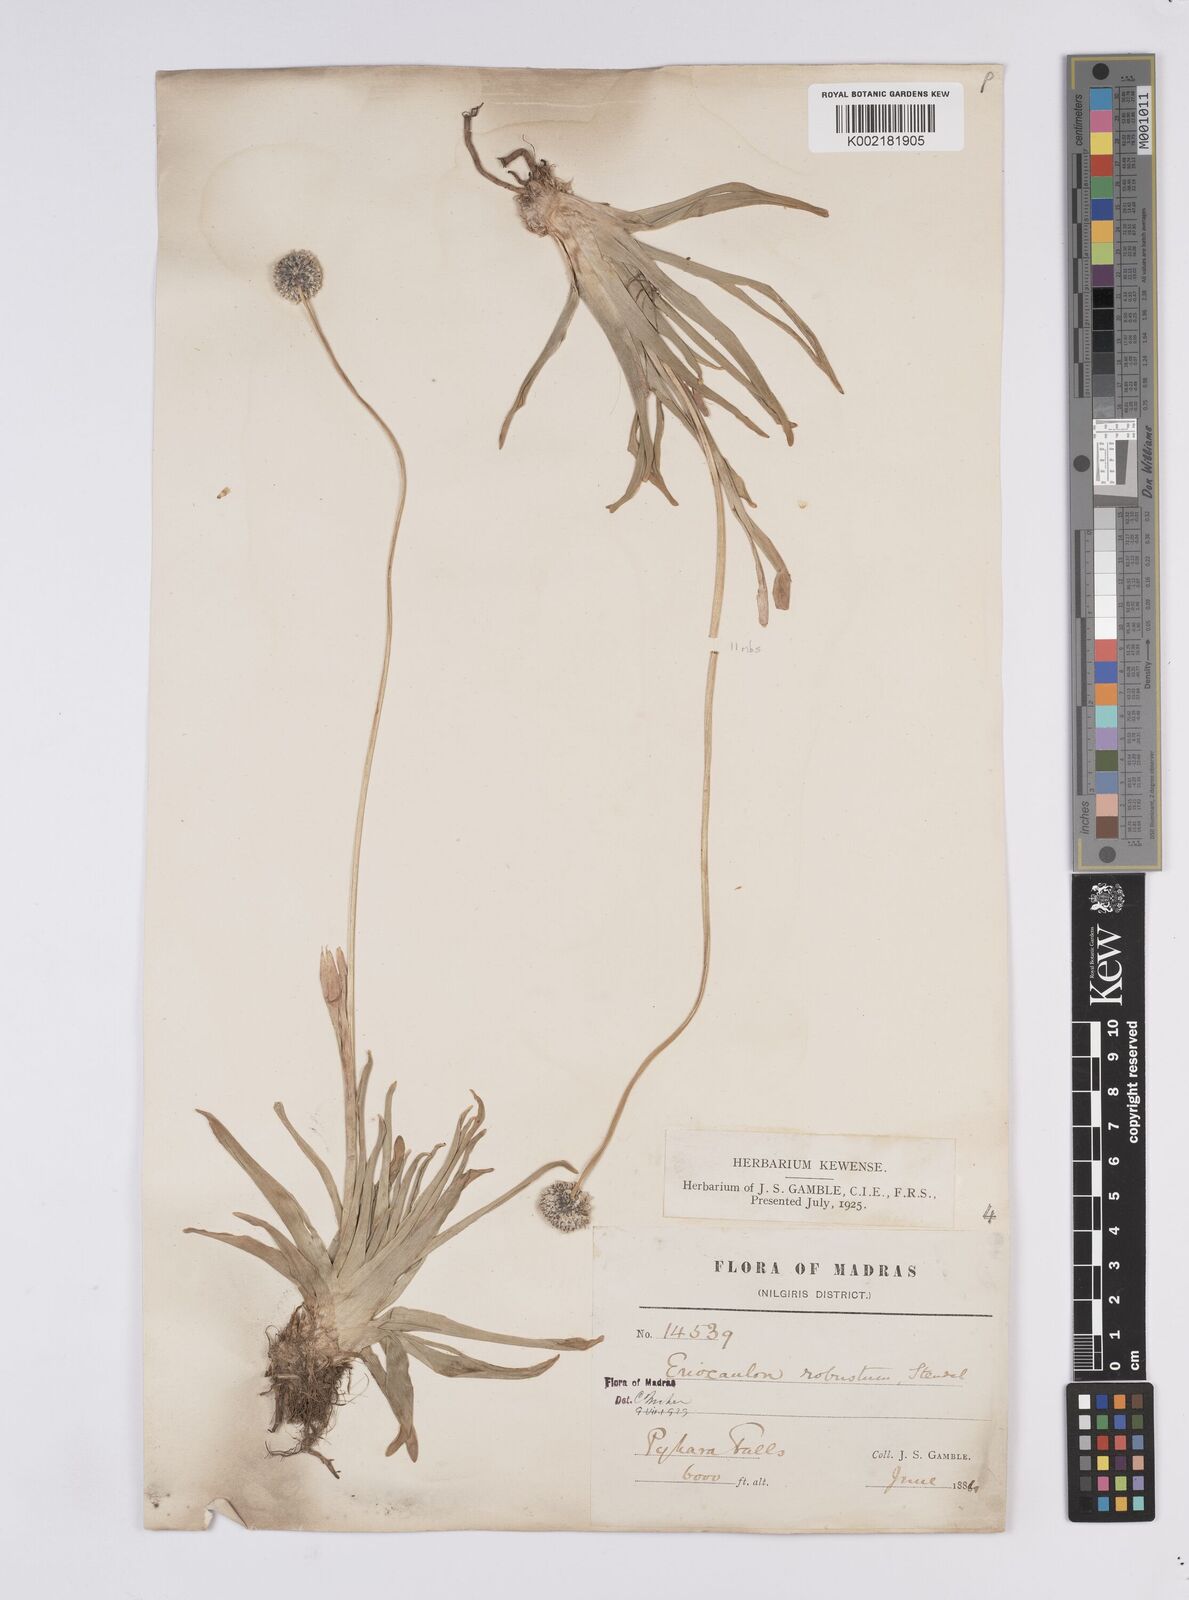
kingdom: Plantae
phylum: Tracheophyta
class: Liliopsida
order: Poales
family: Eriocaulaceae
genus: Eriocaulon
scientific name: Eriocaulon robustum
